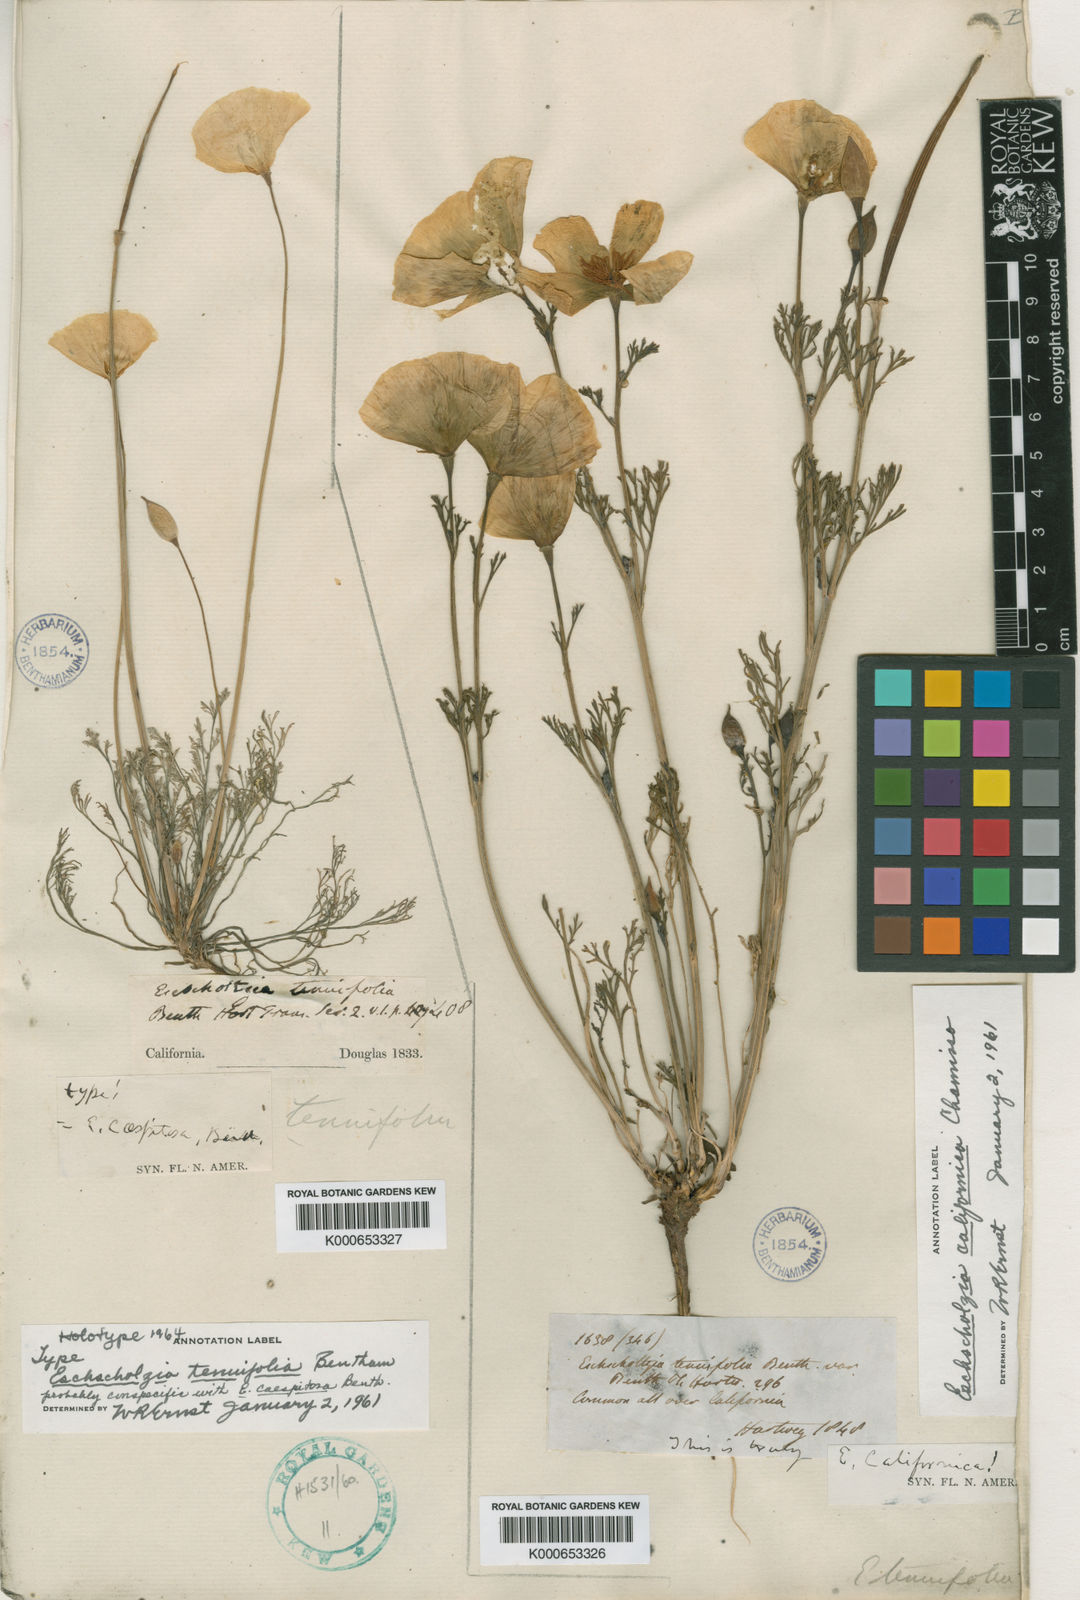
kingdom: Plantae
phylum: Tracheophyta
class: Magnoliopsida
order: Ranunculales
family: Papaveraceae
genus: Eschscholzia
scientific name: Eschscholzia caespitosa
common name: Tufted california-poppy
